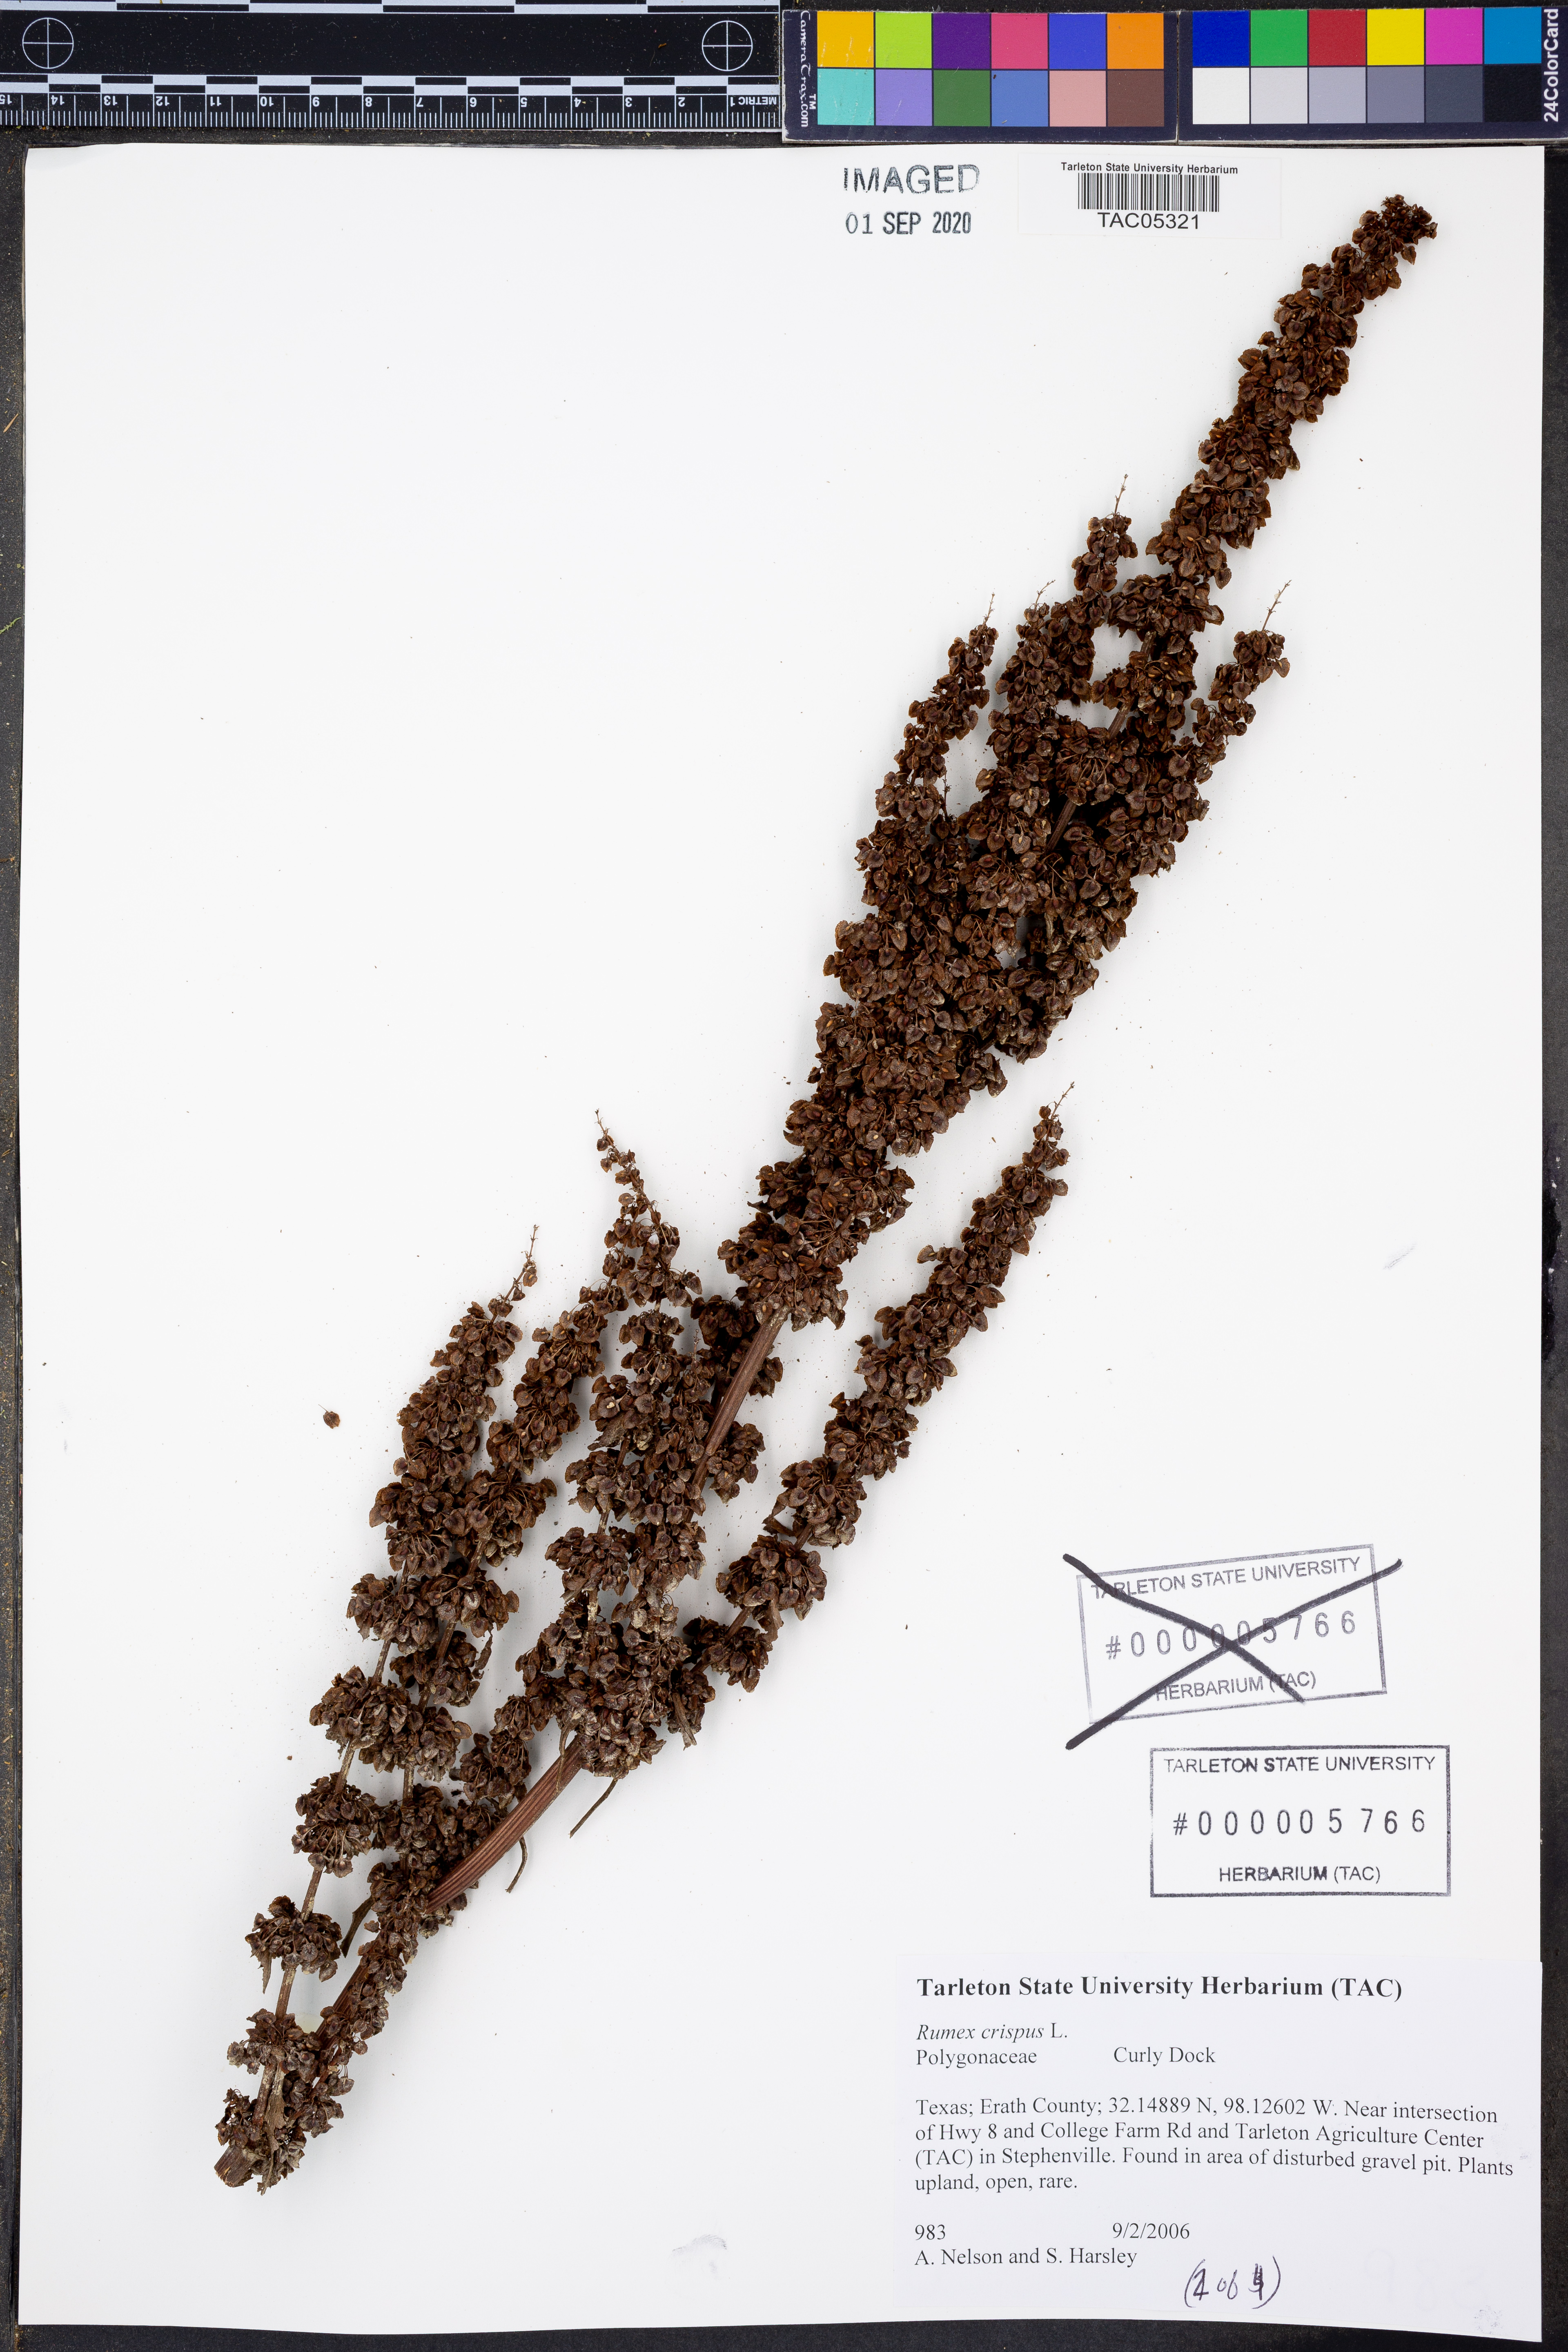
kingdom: Plantae
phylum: Tracheophyta
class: Magnoliopsida
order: Caryophyllales
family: Polygonaceae
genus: Rumex
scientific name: Rumex crispus
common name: Curled dock
